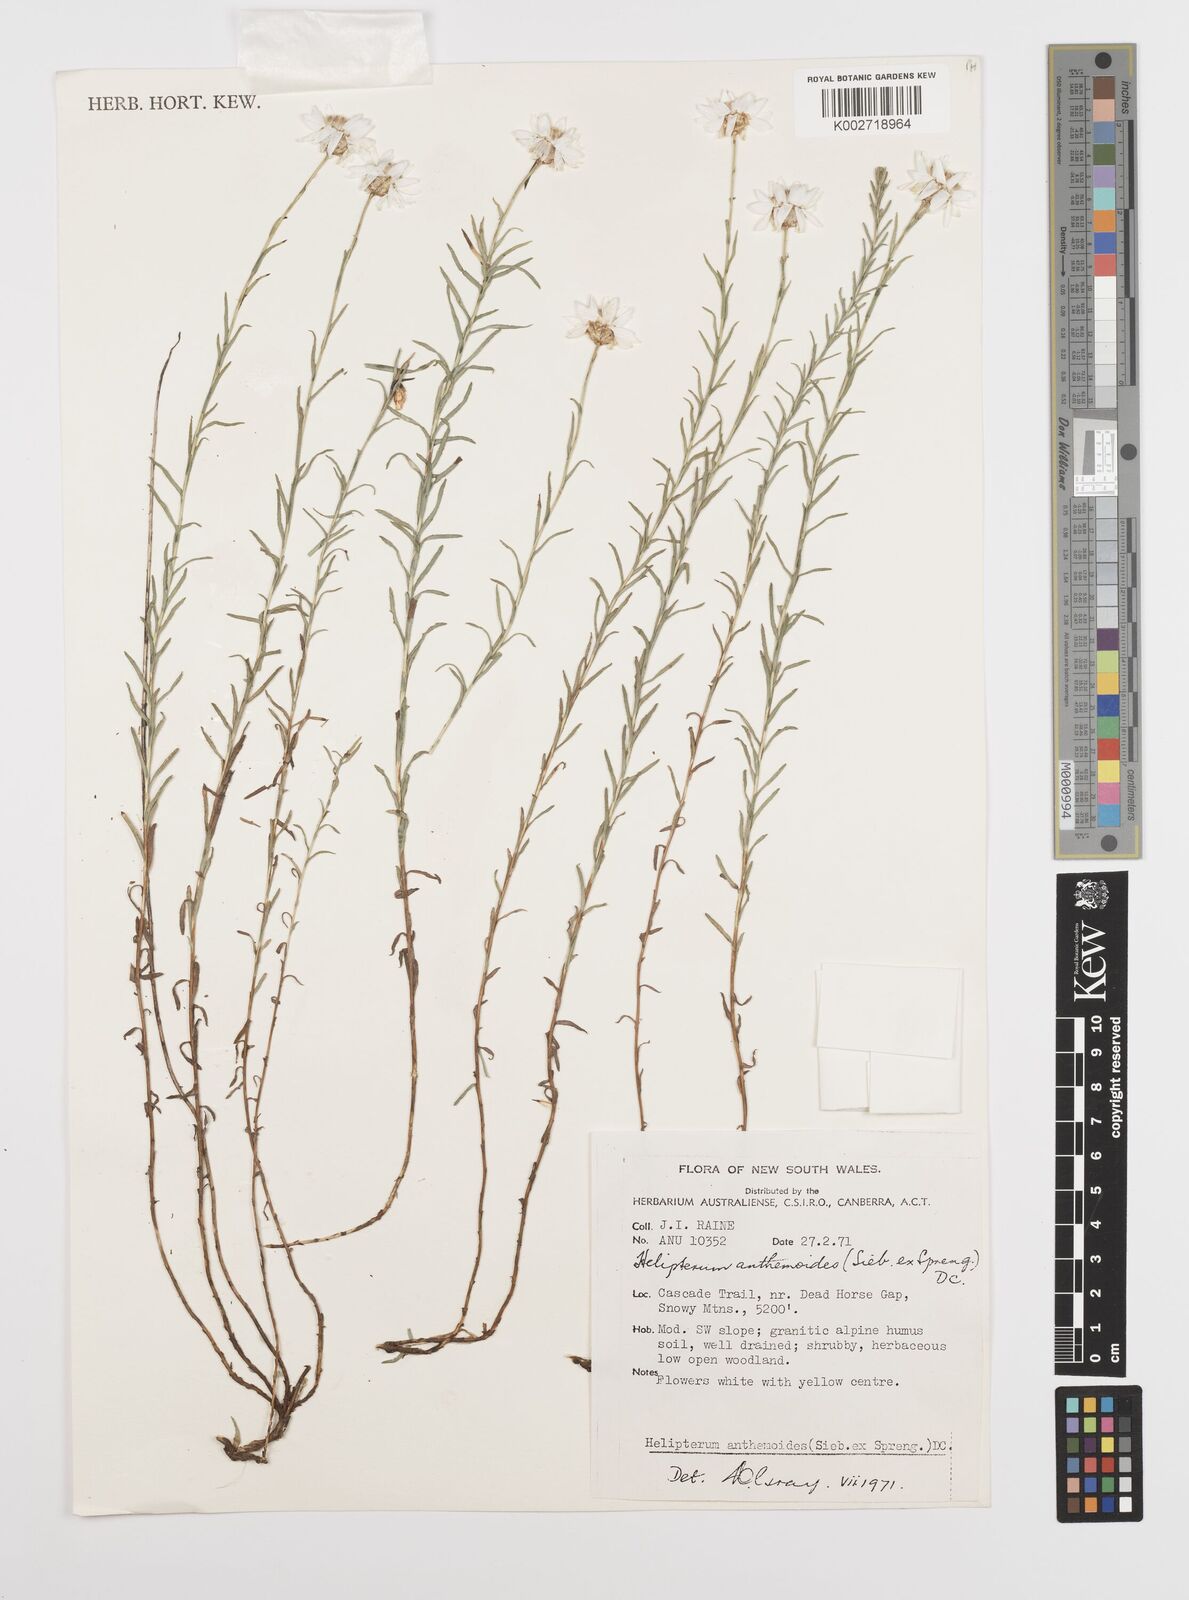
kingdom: Plantae
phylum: Tracheophyta
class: Magnoliopsida
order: Asterales
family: Asteraceae
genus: Rhodanthe
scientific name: Rhodanthe anthemoides
